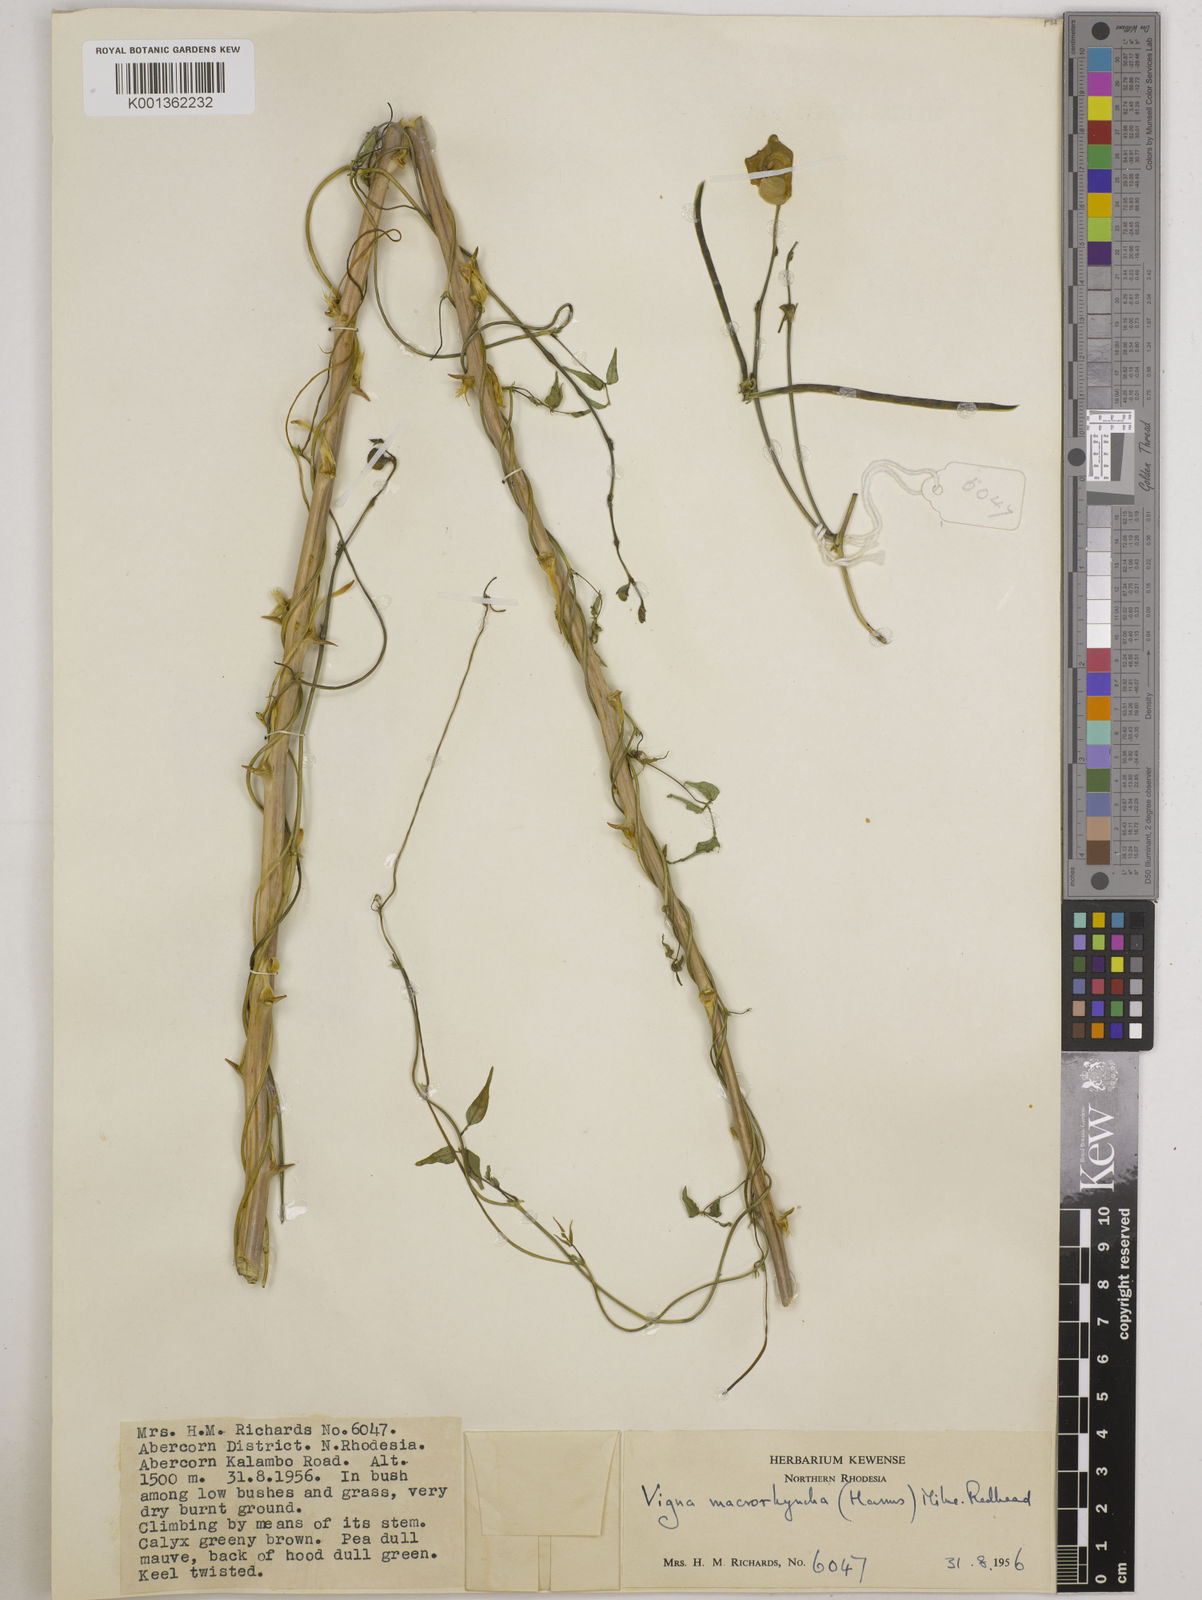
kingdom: Plantae
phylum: Tracheophyta
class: Magnoliopsida
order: Fabales
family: Fabaceae
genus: Wajira
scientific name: Wajira grahamiana
